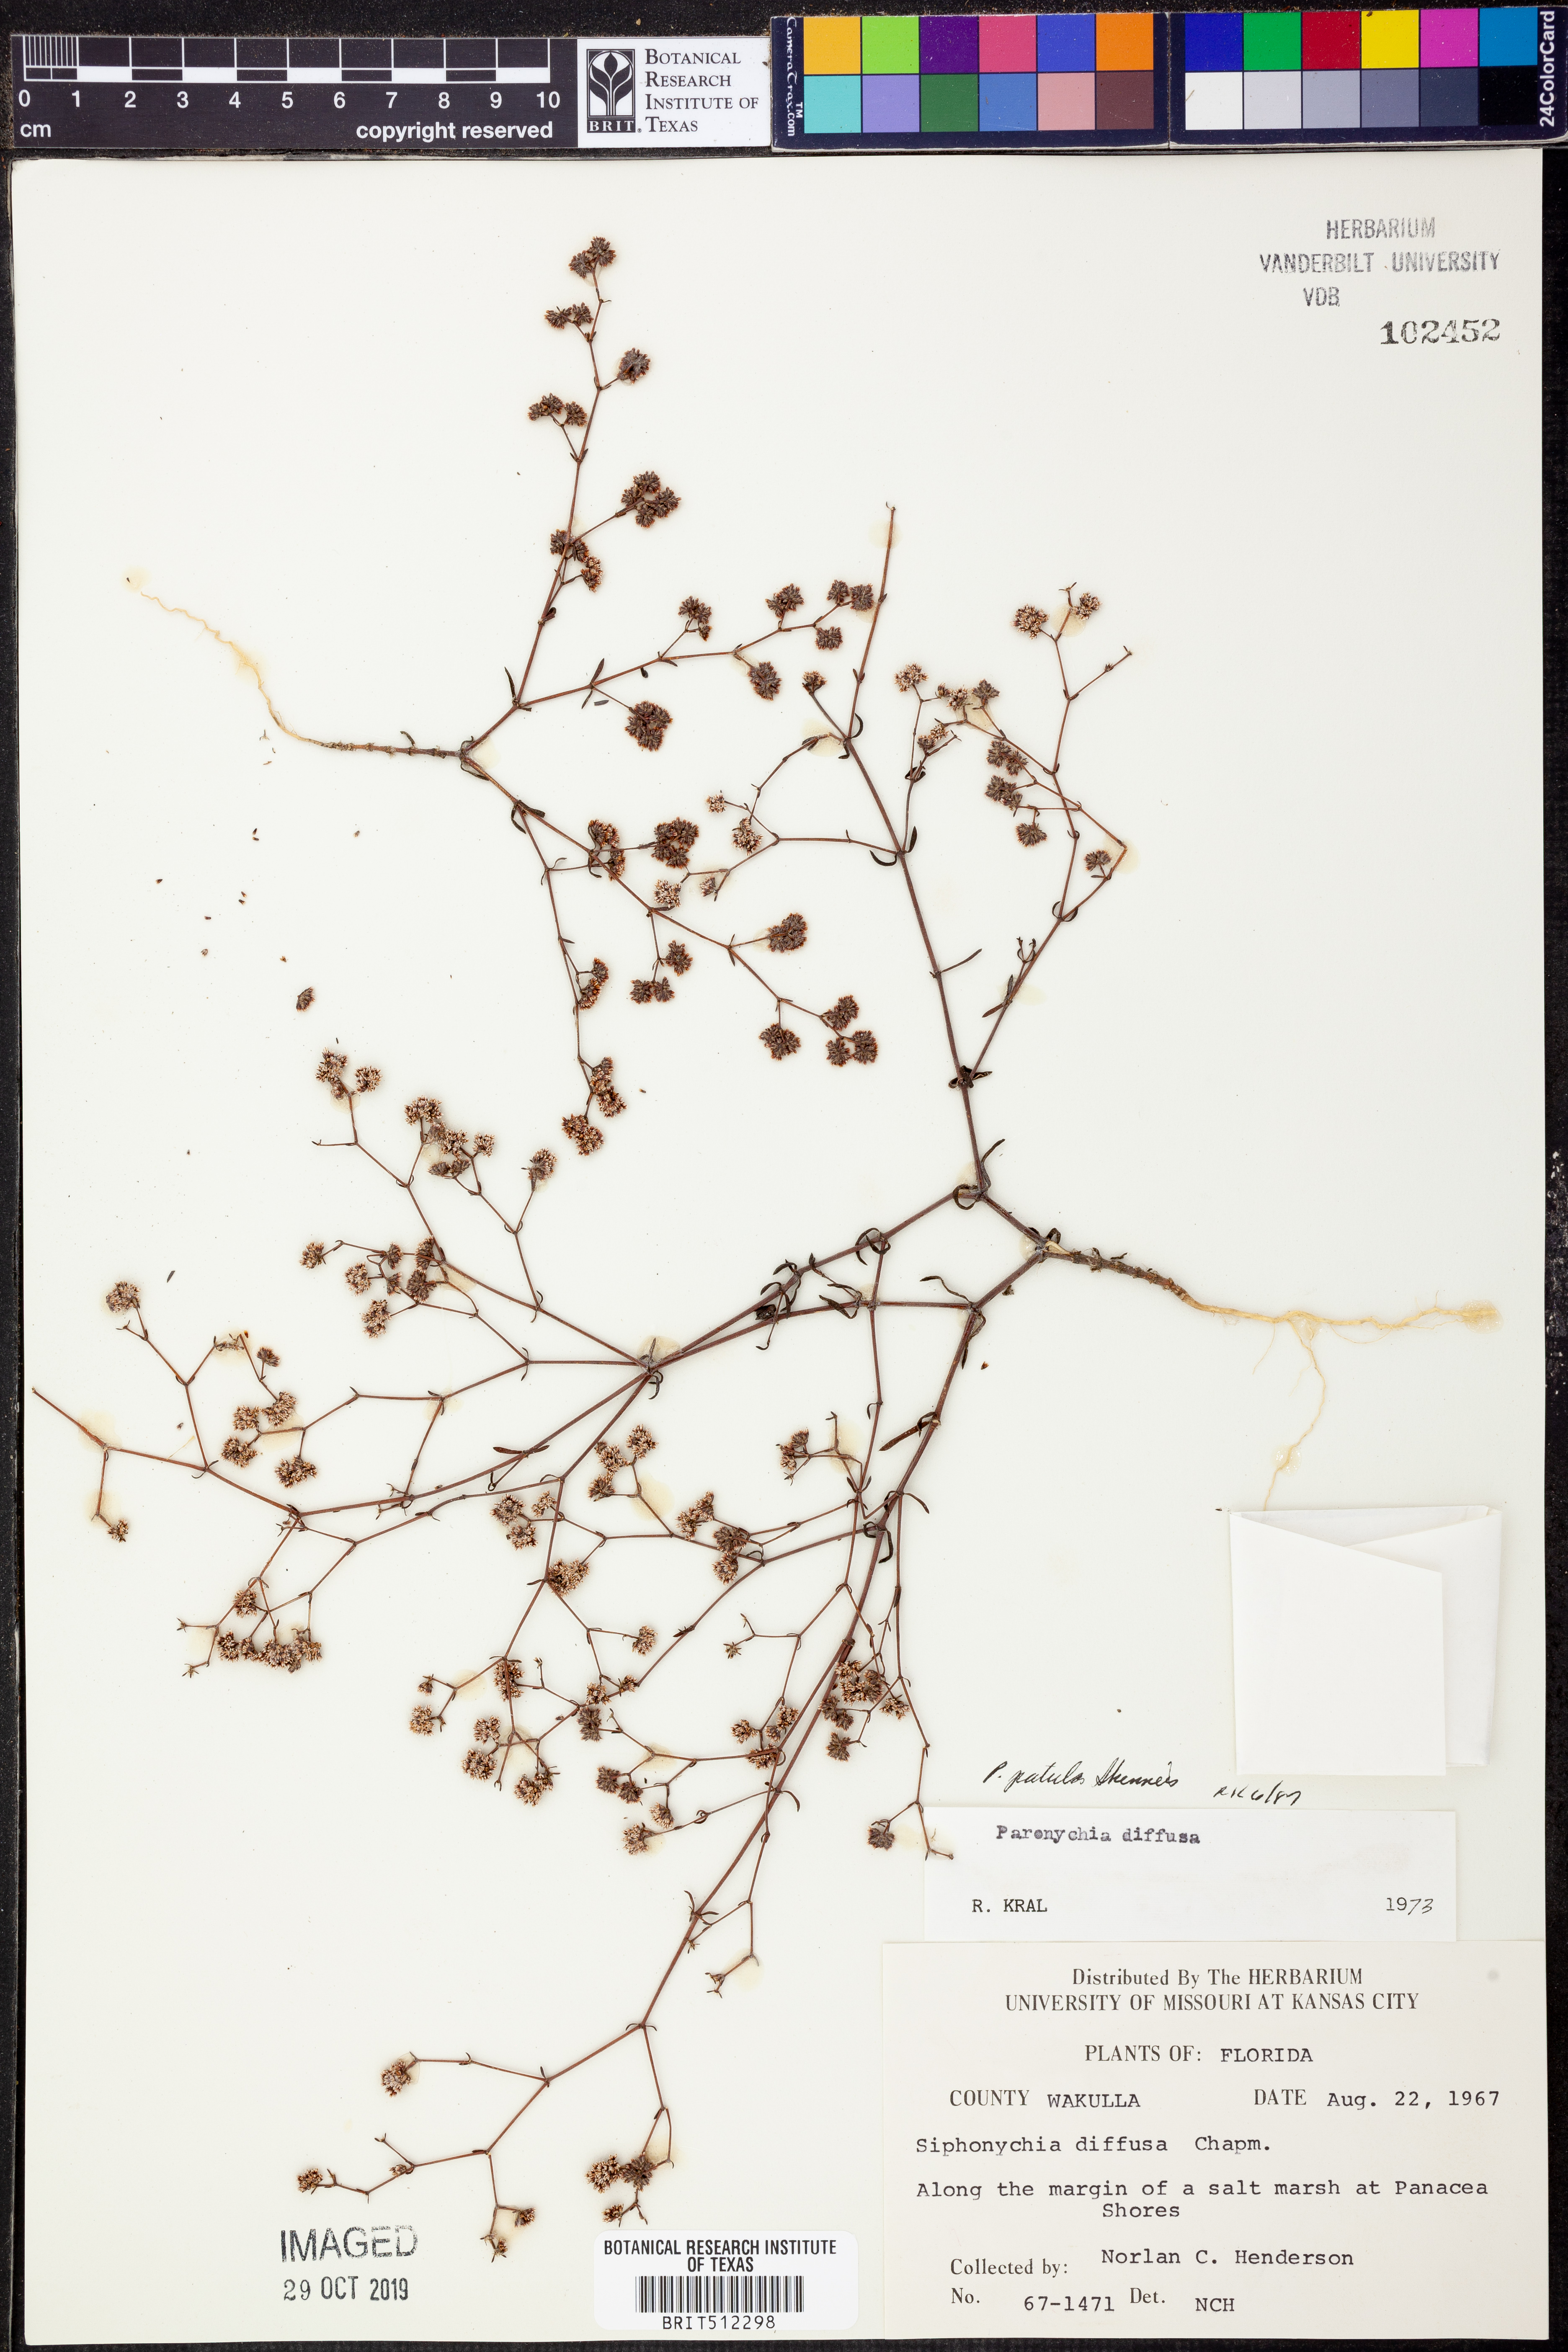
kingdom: Plantae
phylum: Tracheophyta
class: Magnoliopsida
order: Caryophyllales
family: Caryophyllaceae
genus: Paronychia
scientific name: Paronychia patula
